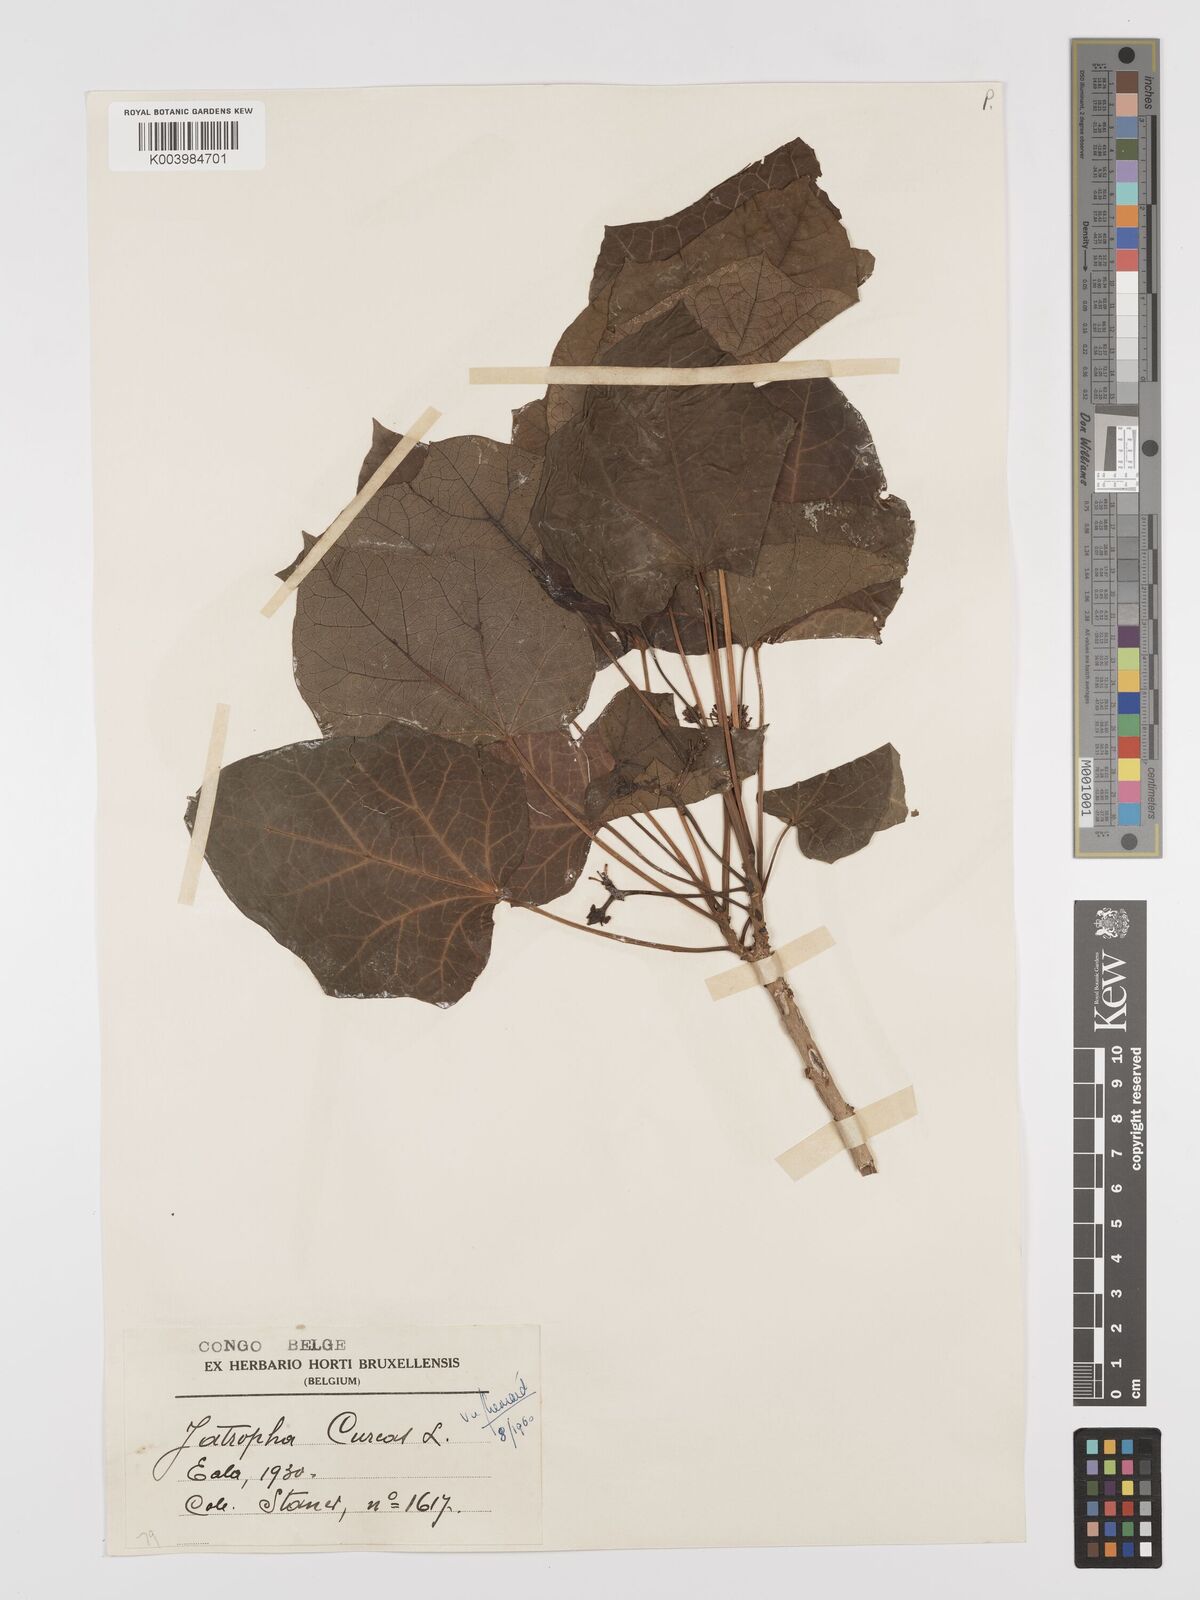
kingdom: Plantae
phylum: Tracheophyta
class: Magnoliopsida
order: Malpighiales
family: Euphorbiaceae
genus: Jatropha
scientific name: Jatropha curcas
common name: Barbados nut
